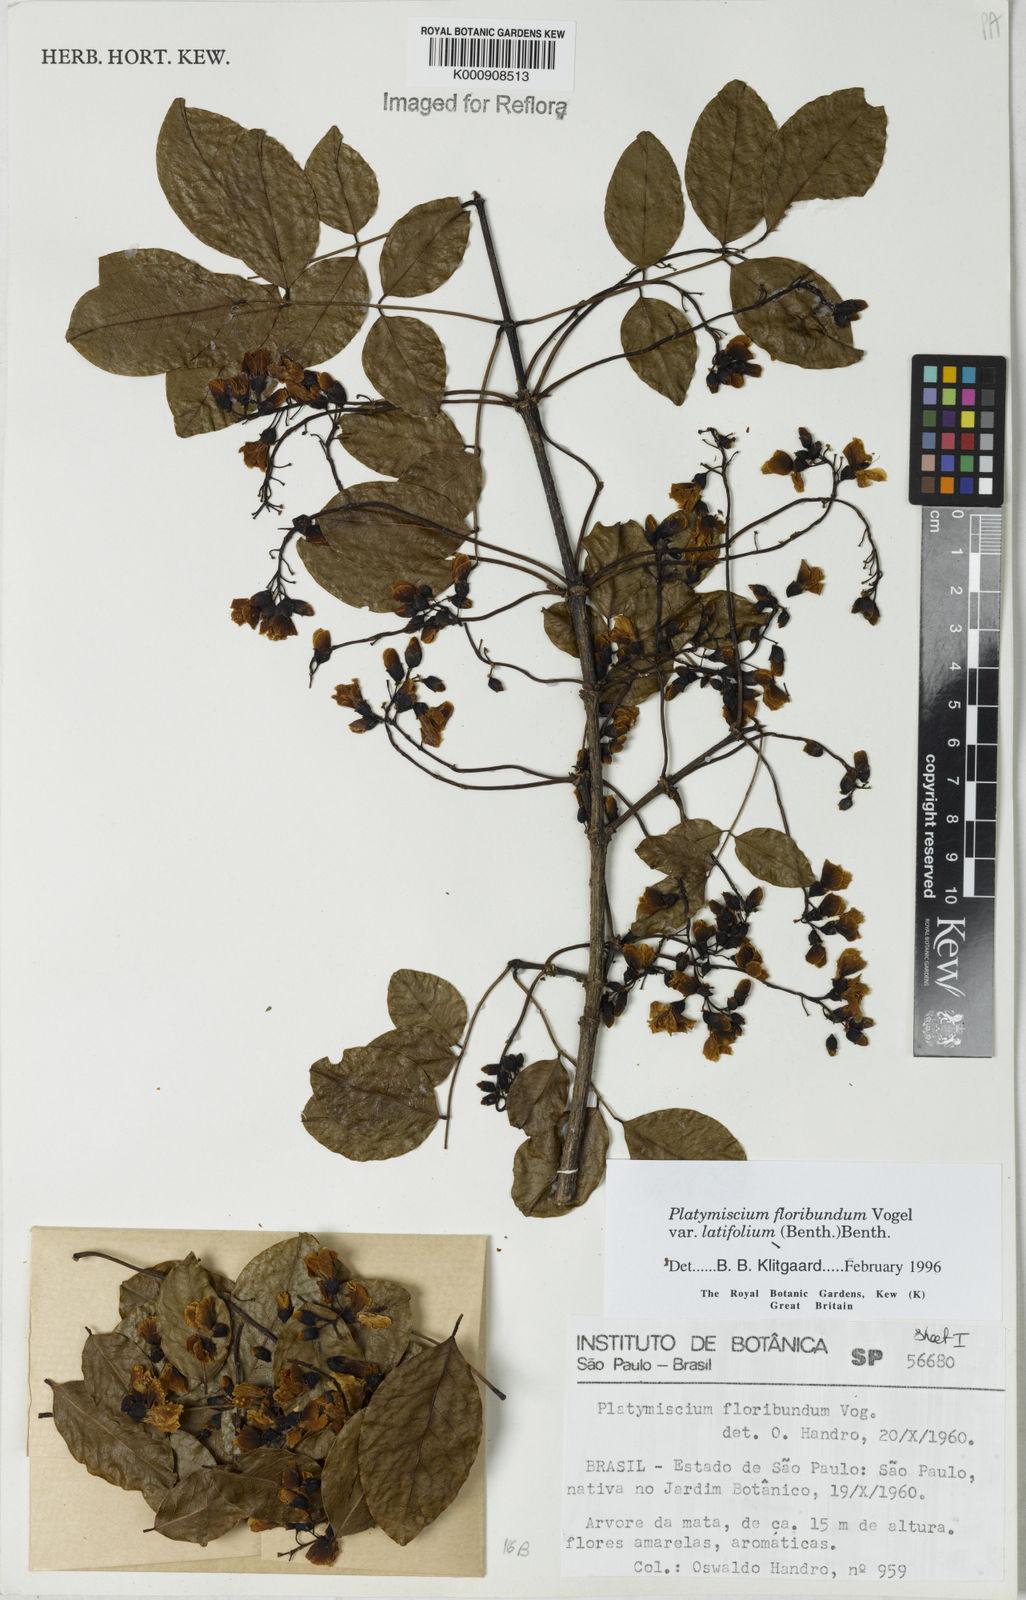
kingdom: Plantae
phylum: Tracheophyta
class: Magnoliopsida
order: Fabales
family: Fabaceae
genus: Platymiscium
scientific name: Platymiscium floribundum
